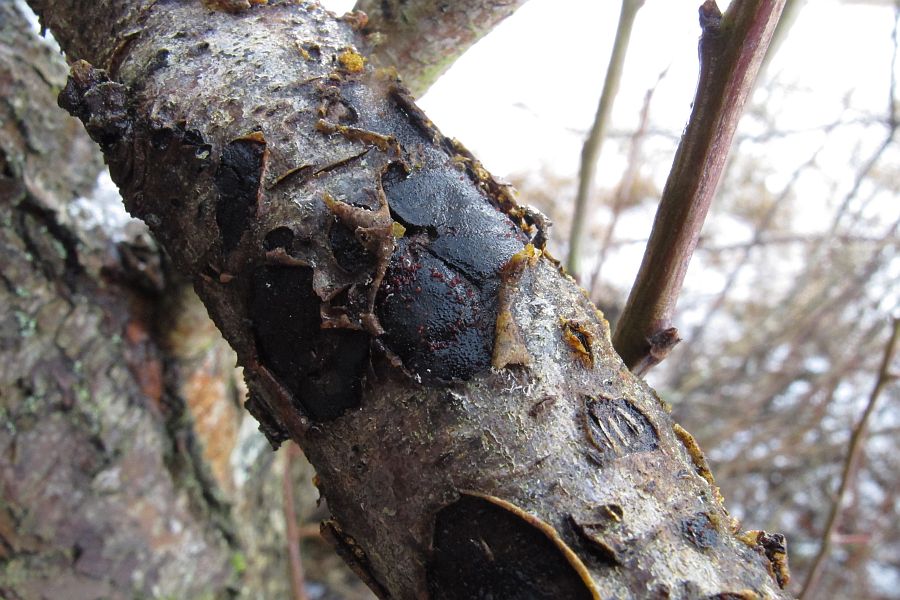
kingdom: Fungi
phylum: Ascomycota
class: Sordariomycetes
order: Hypocreales
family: Nectriaceae
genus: Dialonectria
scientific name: Dialonectria episphaeria
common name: kulskorpe-cinnobersvamp
